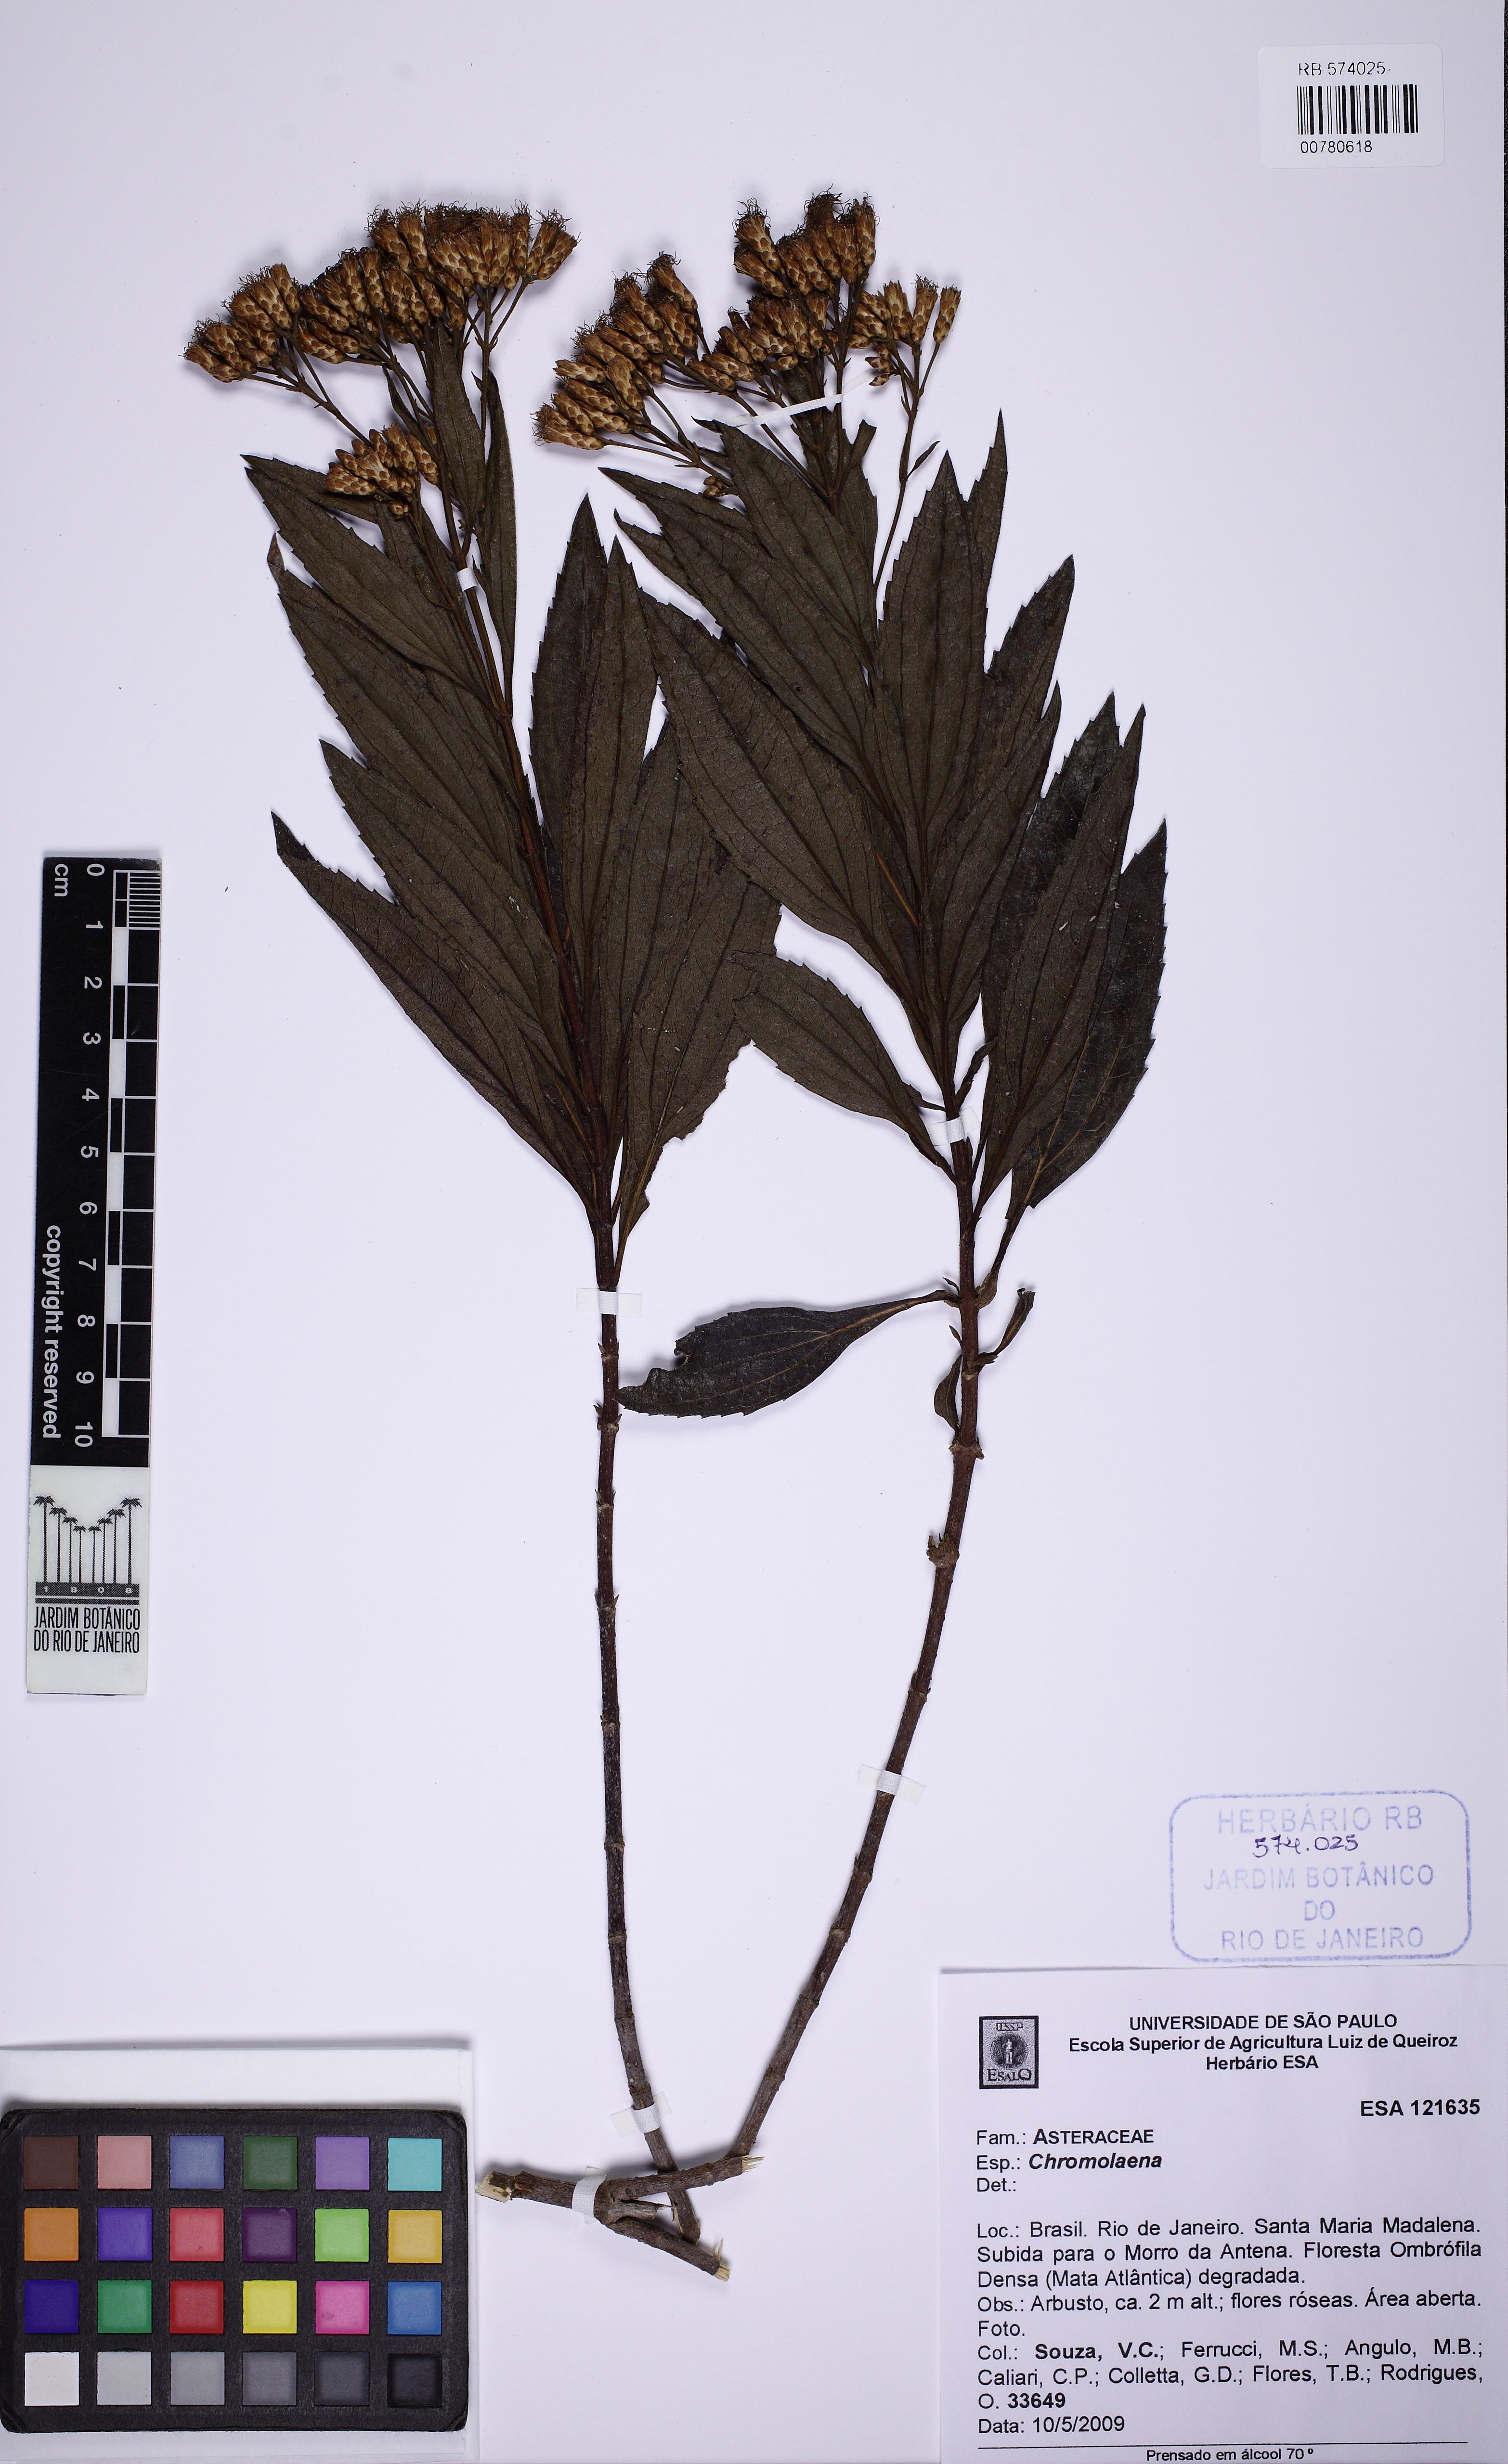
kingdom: Plantae
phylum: Tracheophyta
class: Magnoliopsida
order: Asterales
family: Asteraceae
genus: Chromolaena
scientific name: Chromolaena
